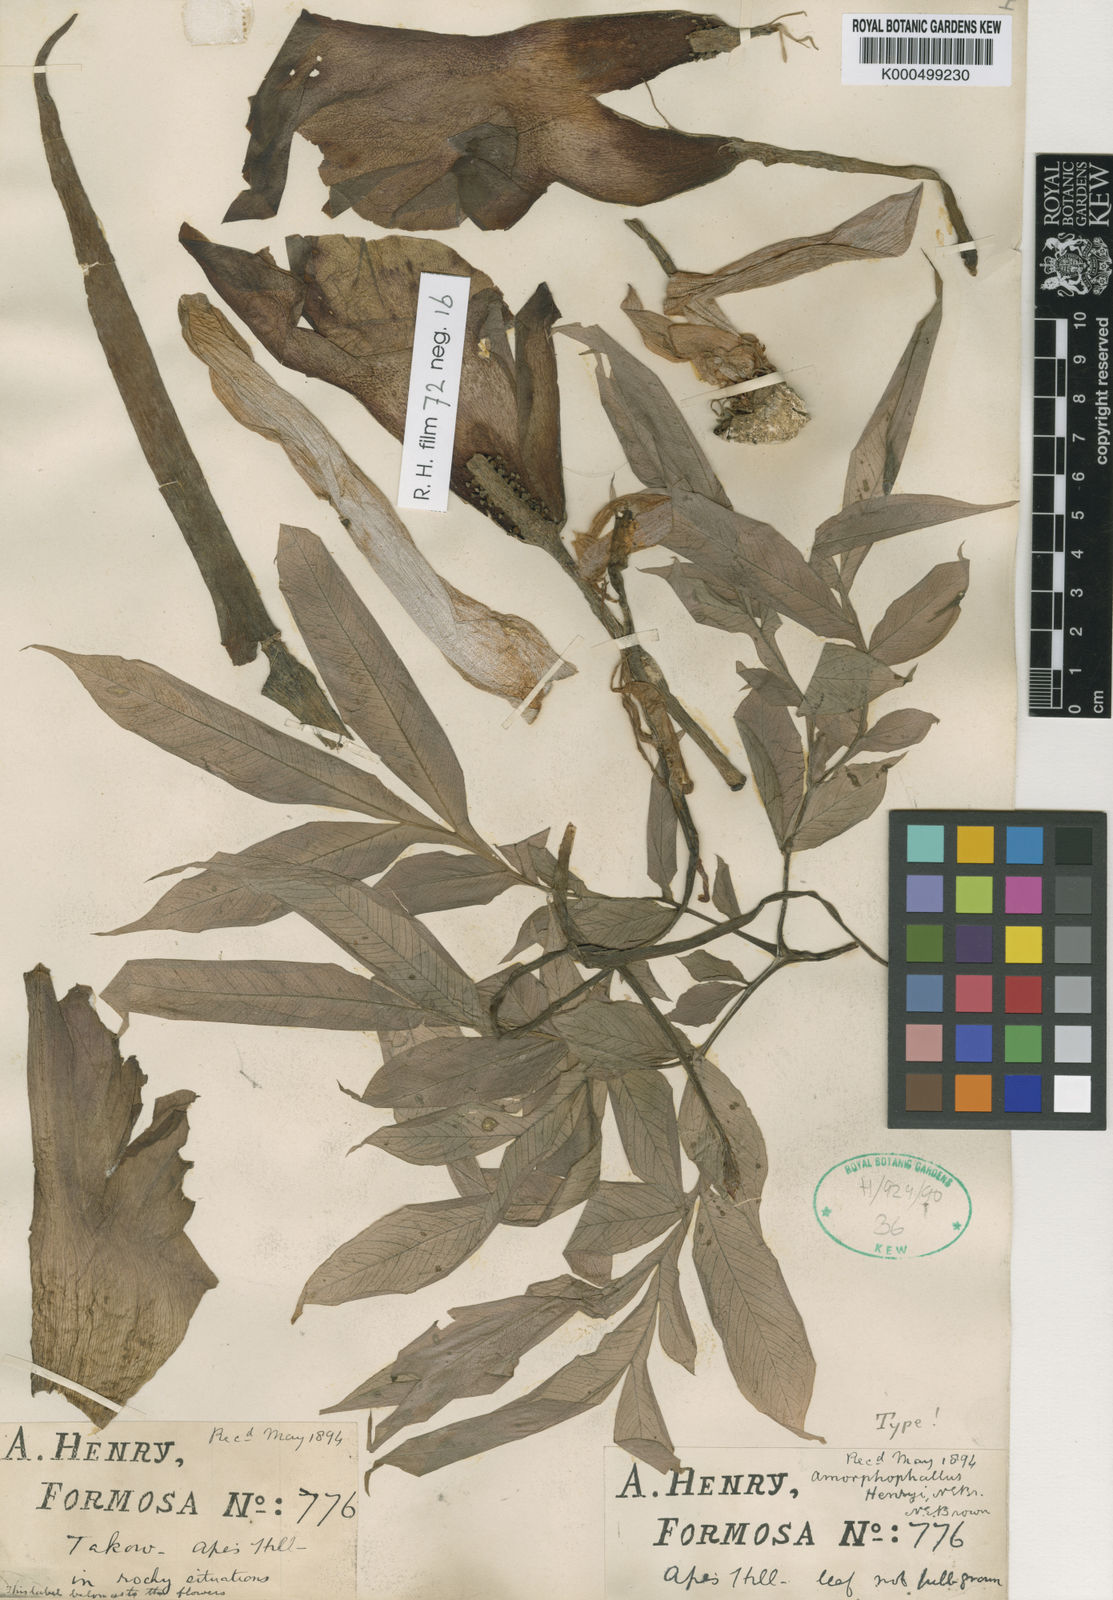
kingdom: Plantae
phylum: Tracheophyta
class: Liliopsida
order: Alismatales
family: Araceae
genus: Amorphophallus
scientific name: Amorphophallus henryi
